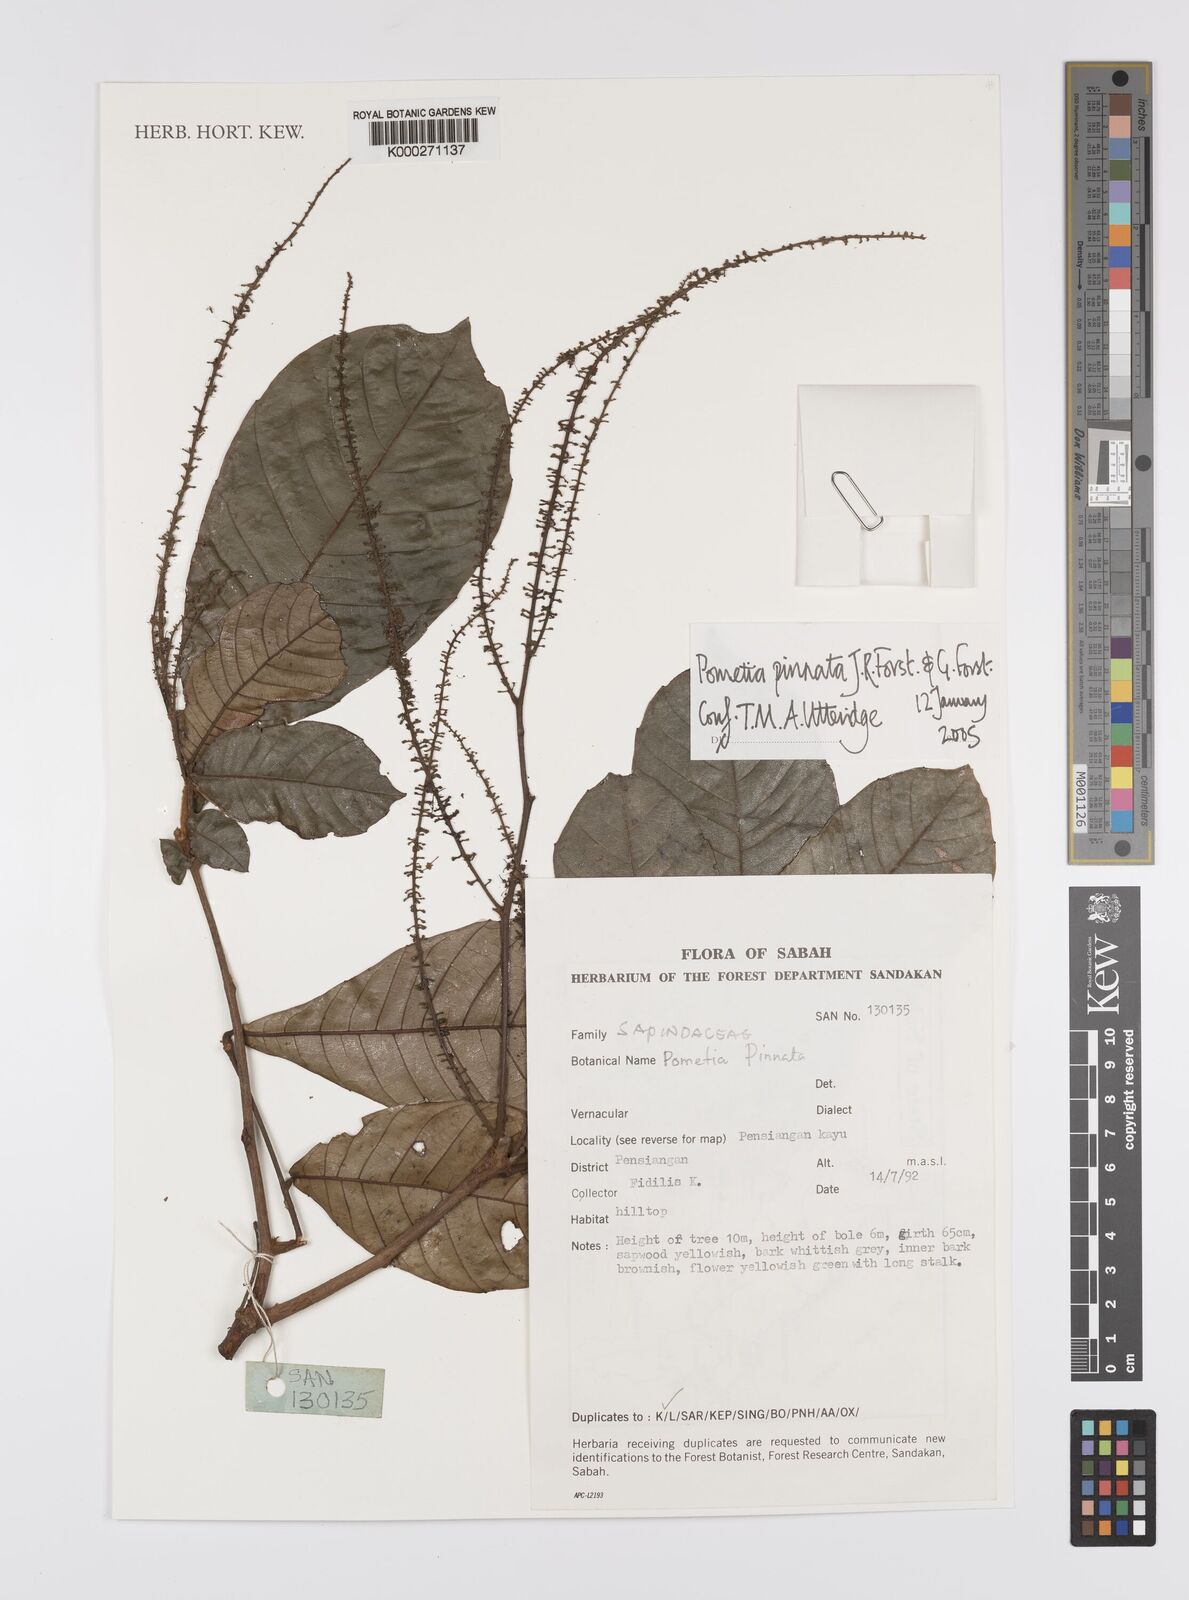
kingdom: Plantae
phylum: Tracheophyta
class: Magnoliopsida
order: Sapindales
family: Sapindaceae
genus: Pometia
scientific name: Pometia pinnata
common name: Oceanic lychee
